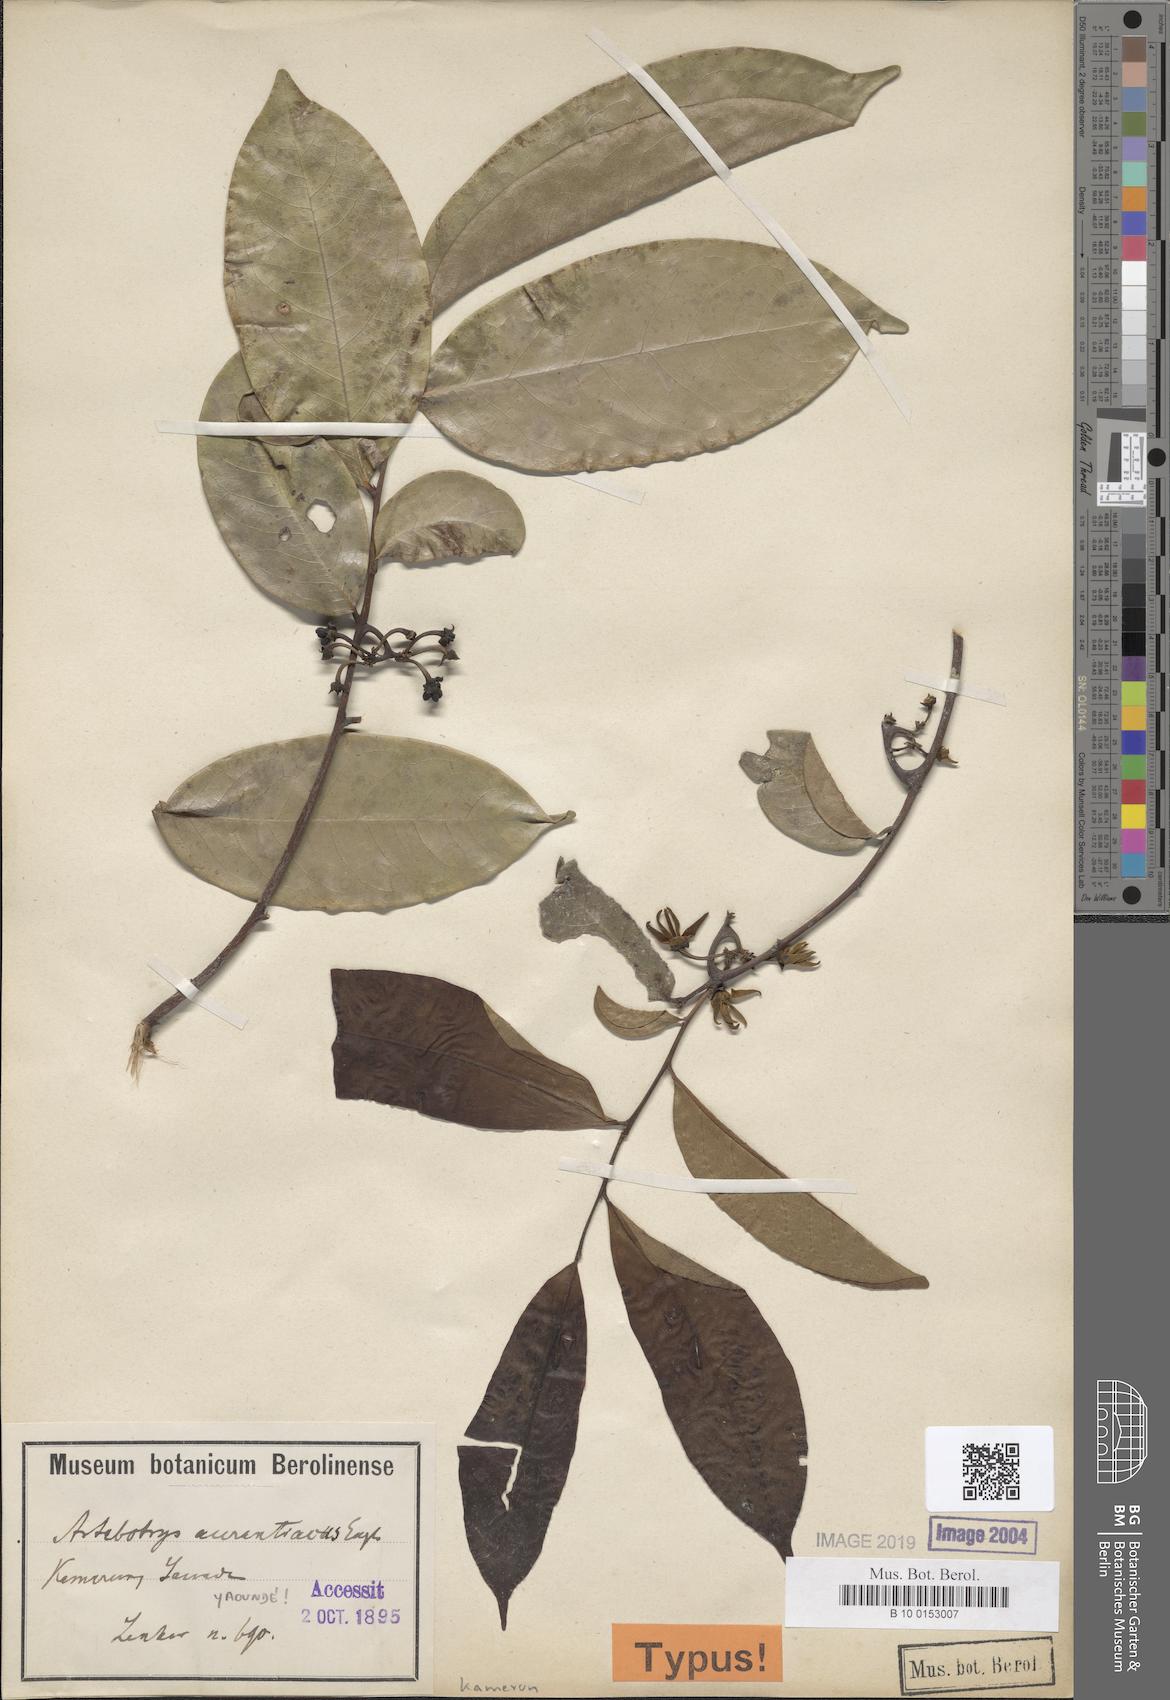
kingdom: Plantae
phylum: Tracheophyta
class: Magnoliopsida
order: Magnoliales
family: Annonaceae
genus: Artabotrys
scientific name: Artabotrys aurantiacus
